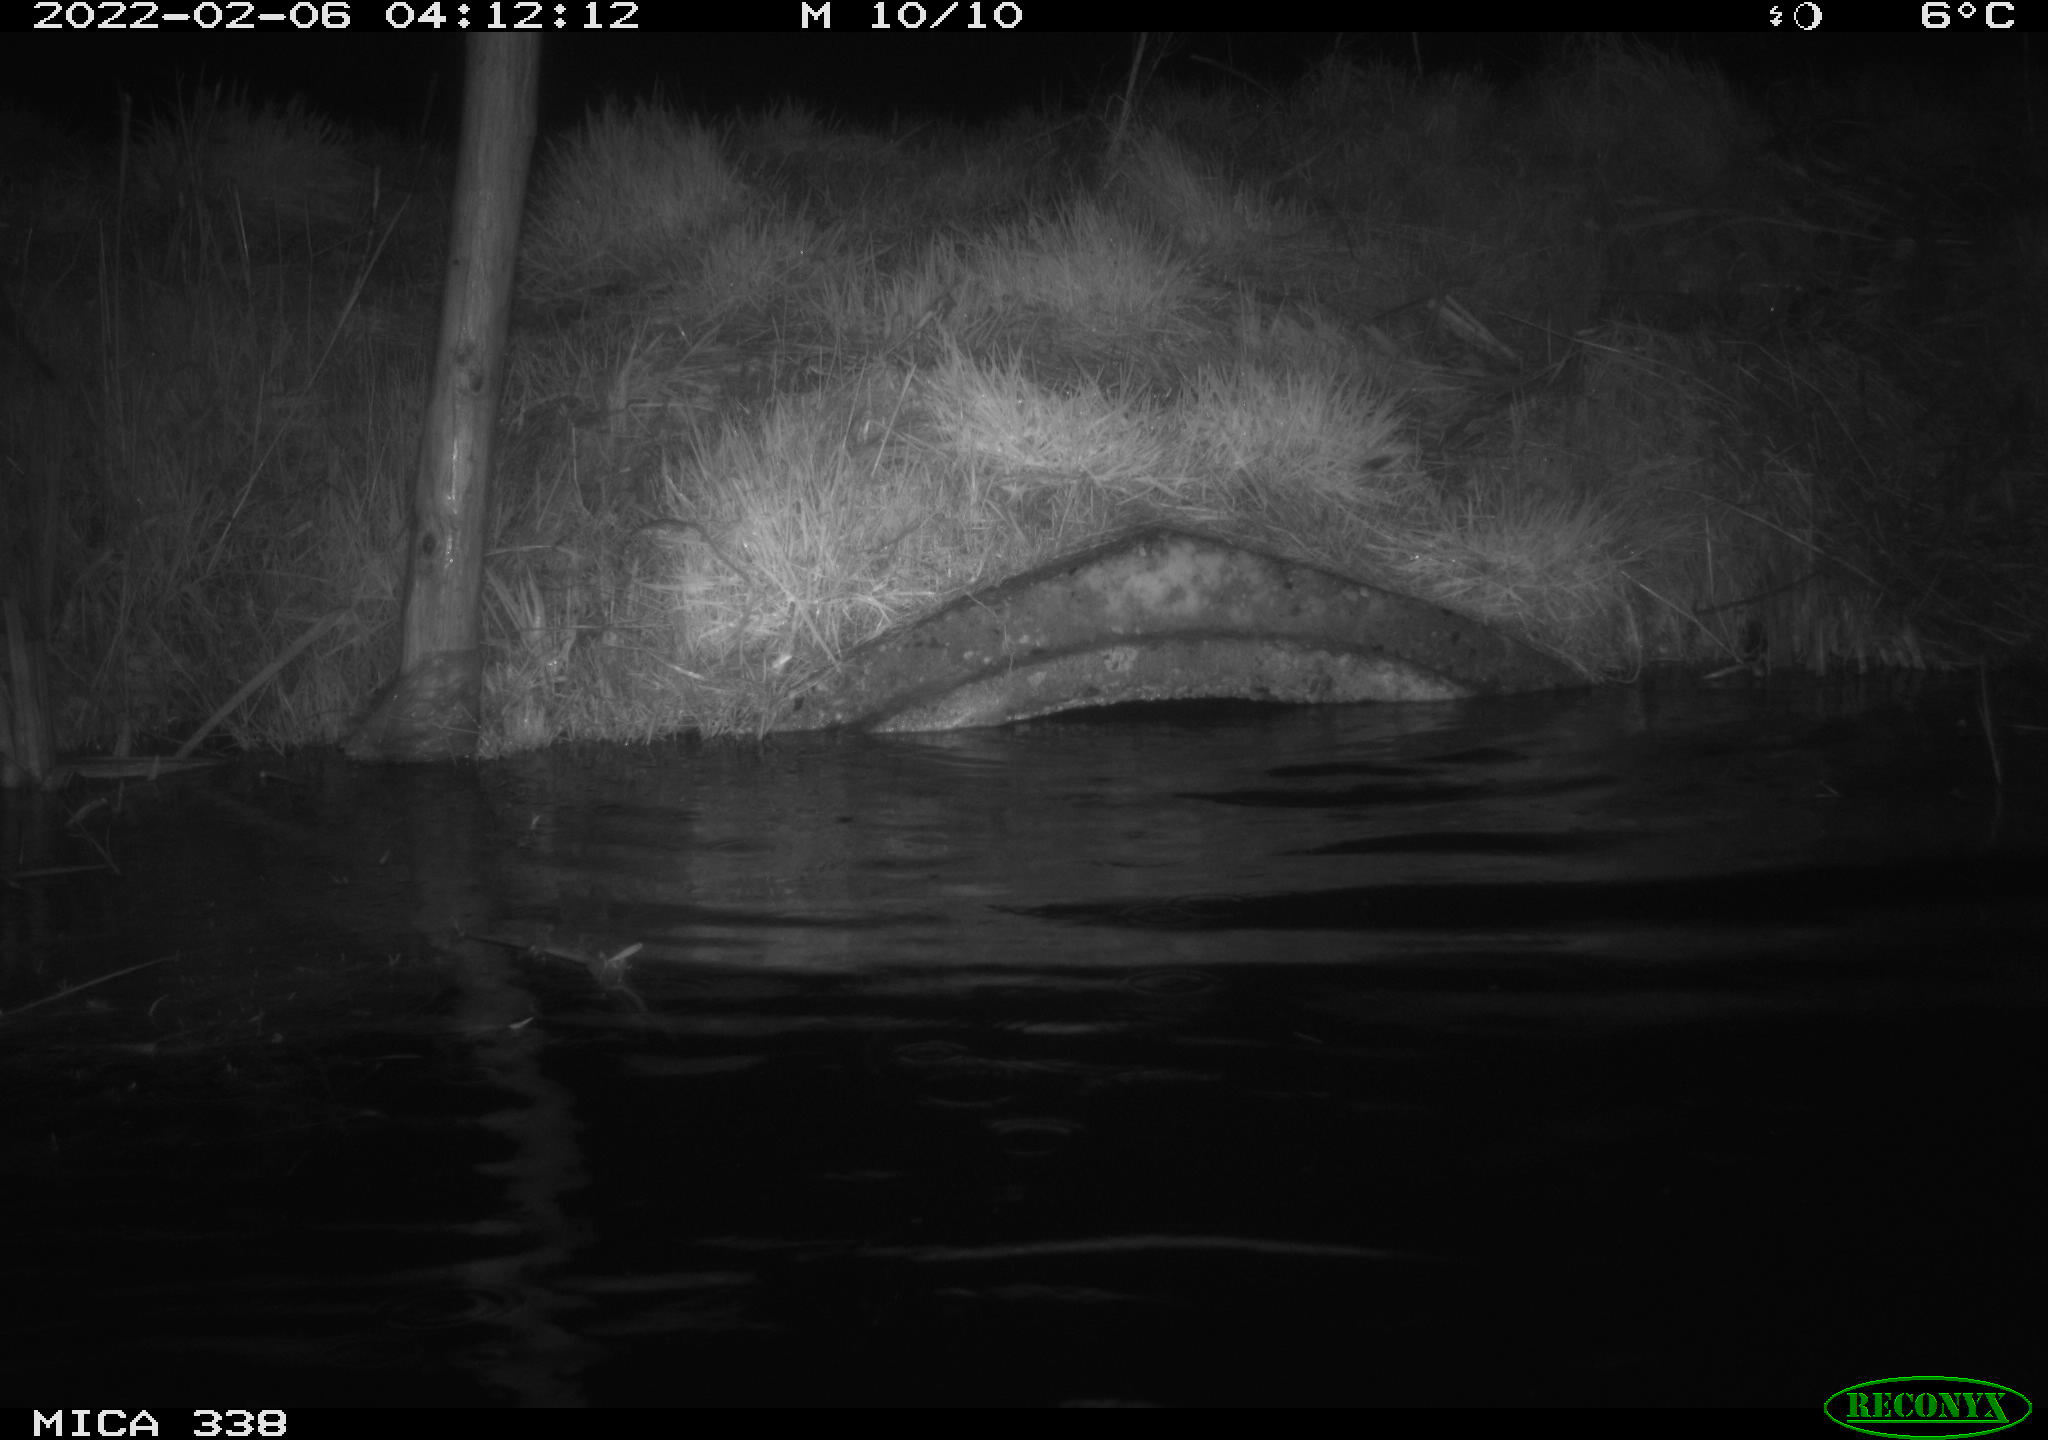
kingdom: Animalia
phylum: Chordata
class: Mammalia
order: Rodentia
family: Muridae
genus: Rattus
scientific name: Rattus norvegicus
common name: Brown rat
